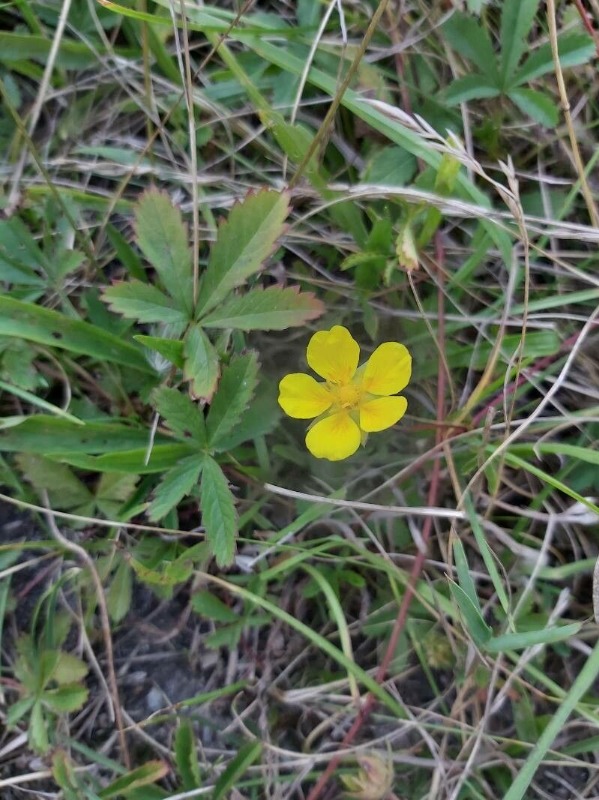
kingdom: Plantae
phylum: Tracheophyta
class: Magnoliopsida
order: Rosales
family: Rosaceae
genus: Potentilla
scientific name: Potentilla reptans
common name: Krybende potentil
